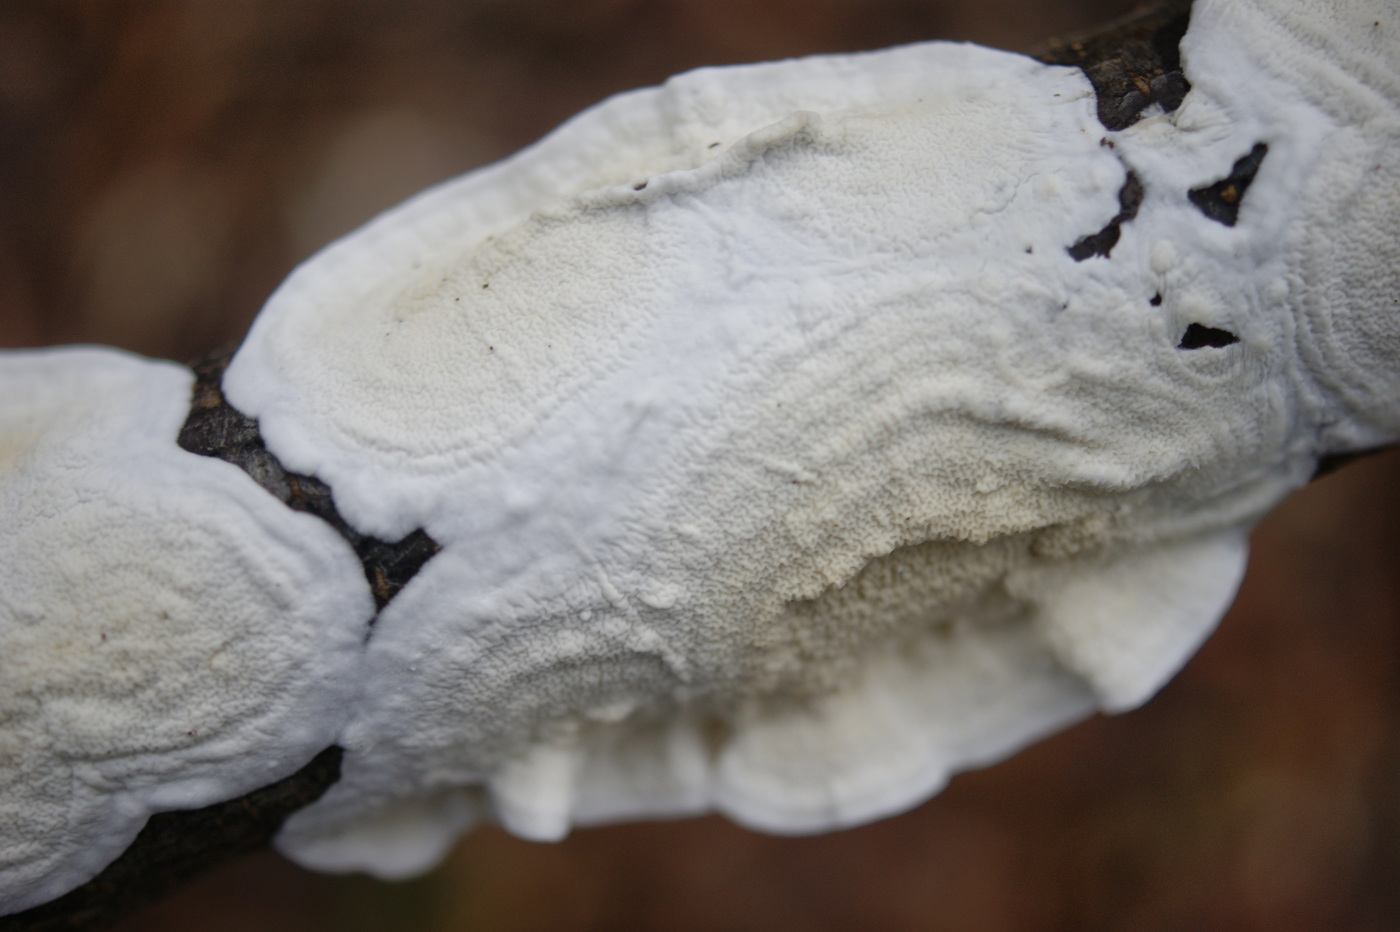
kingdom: Fungi
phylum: Basidiomycota
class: Agaricomycetes
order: Polyporales
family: Irpicaceae
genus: Byssomerulius
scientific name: Byssomerulius corium
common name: læder-åresvamp
